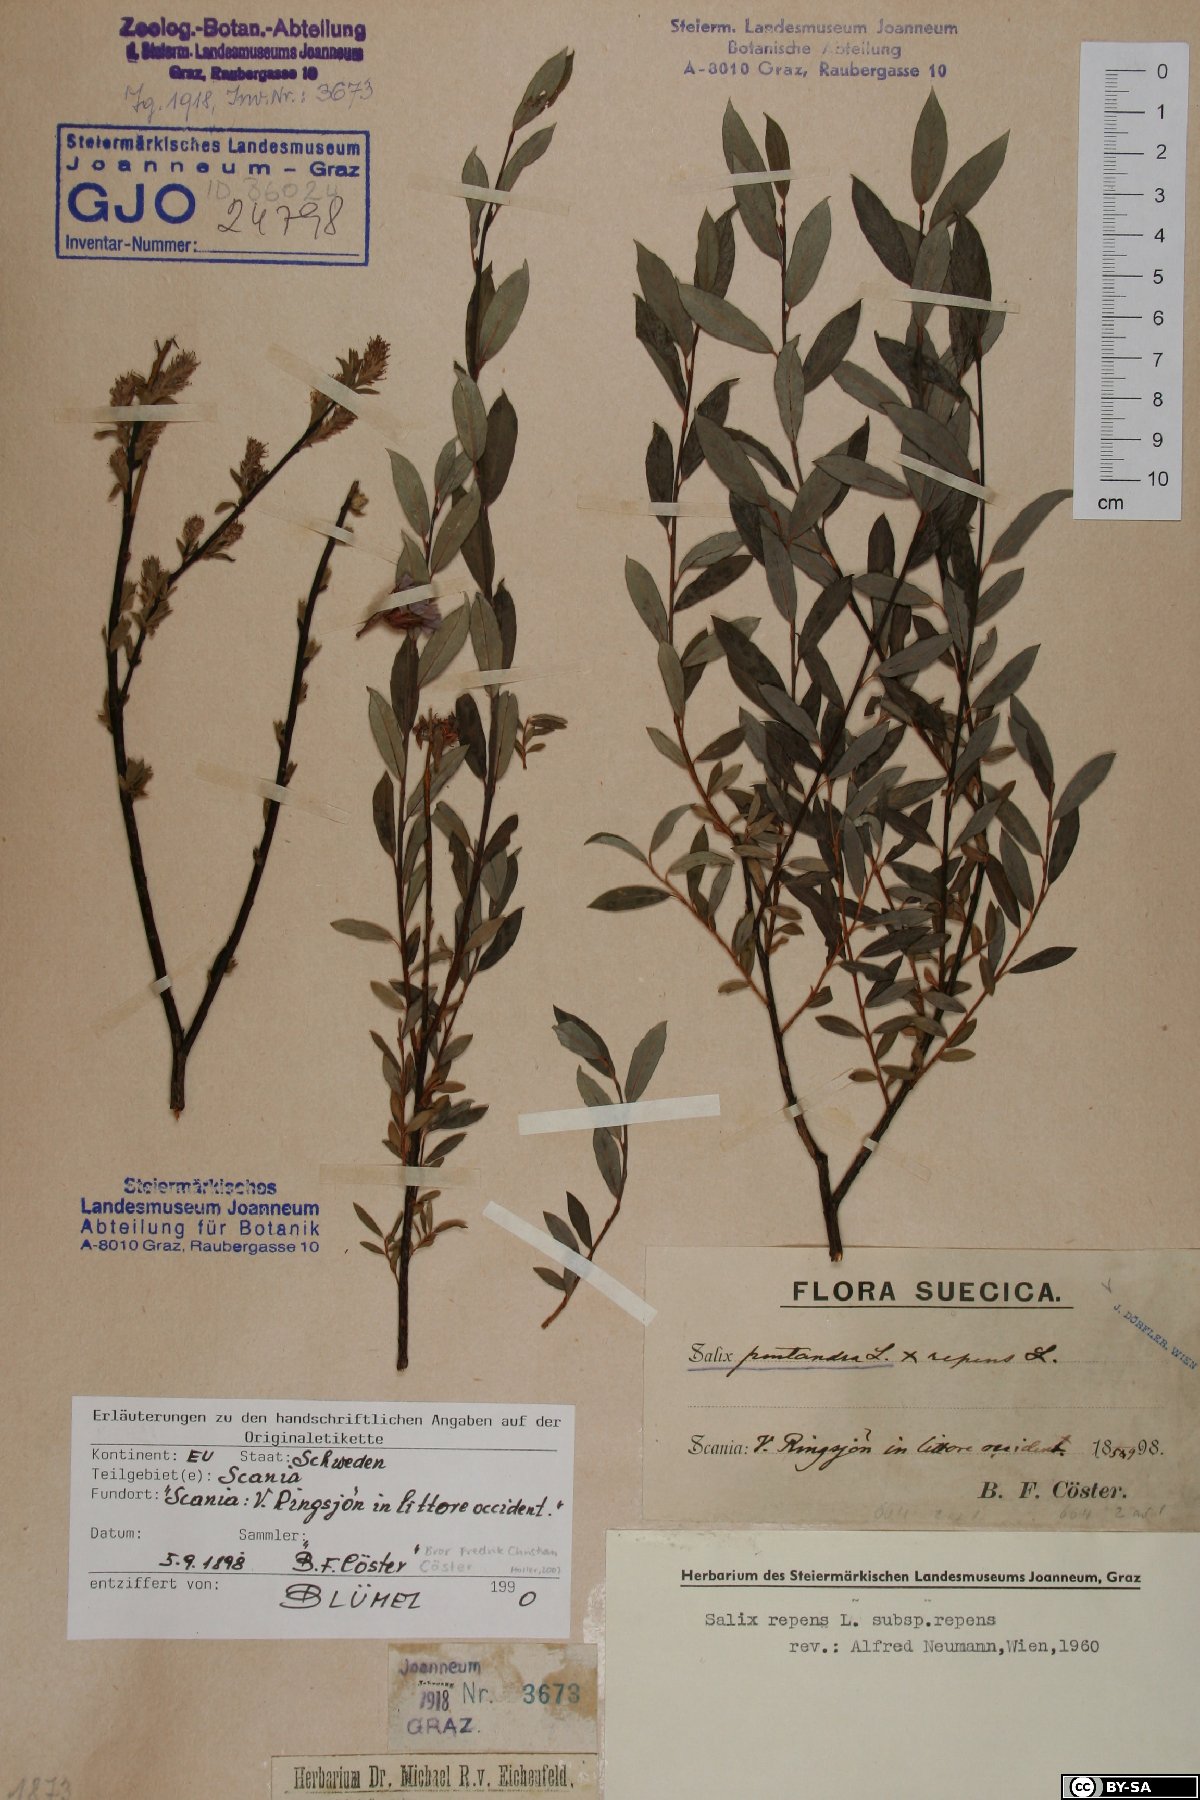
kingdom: Plantae
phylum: Tracheophyta
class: Magnoliopsida
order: Malpighiales
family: Salicaceae
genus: Salix
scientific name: Salix repens
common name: Creeping willow
